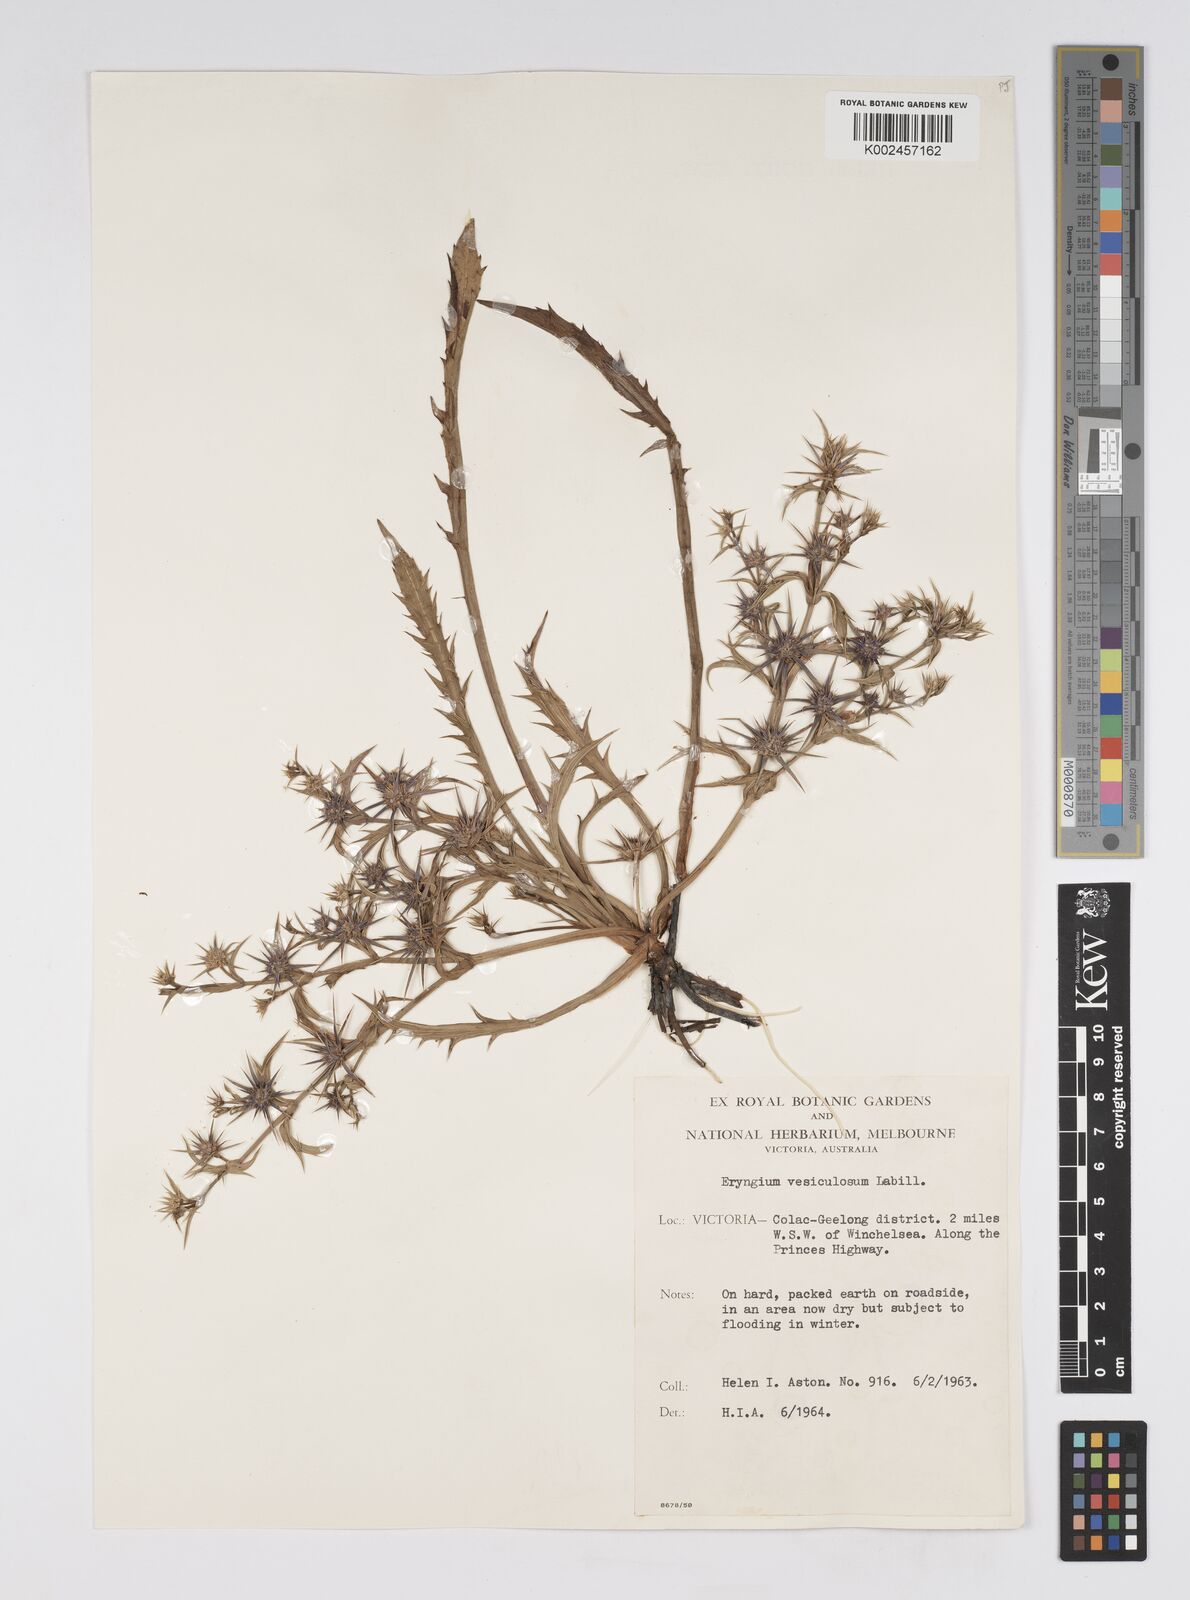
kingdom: Plantae
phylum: Tracheophyta
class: Magnoliopsida
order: Apiales
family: Apiaceae
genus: Eryngium
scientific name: Eryngium vesiculosum
